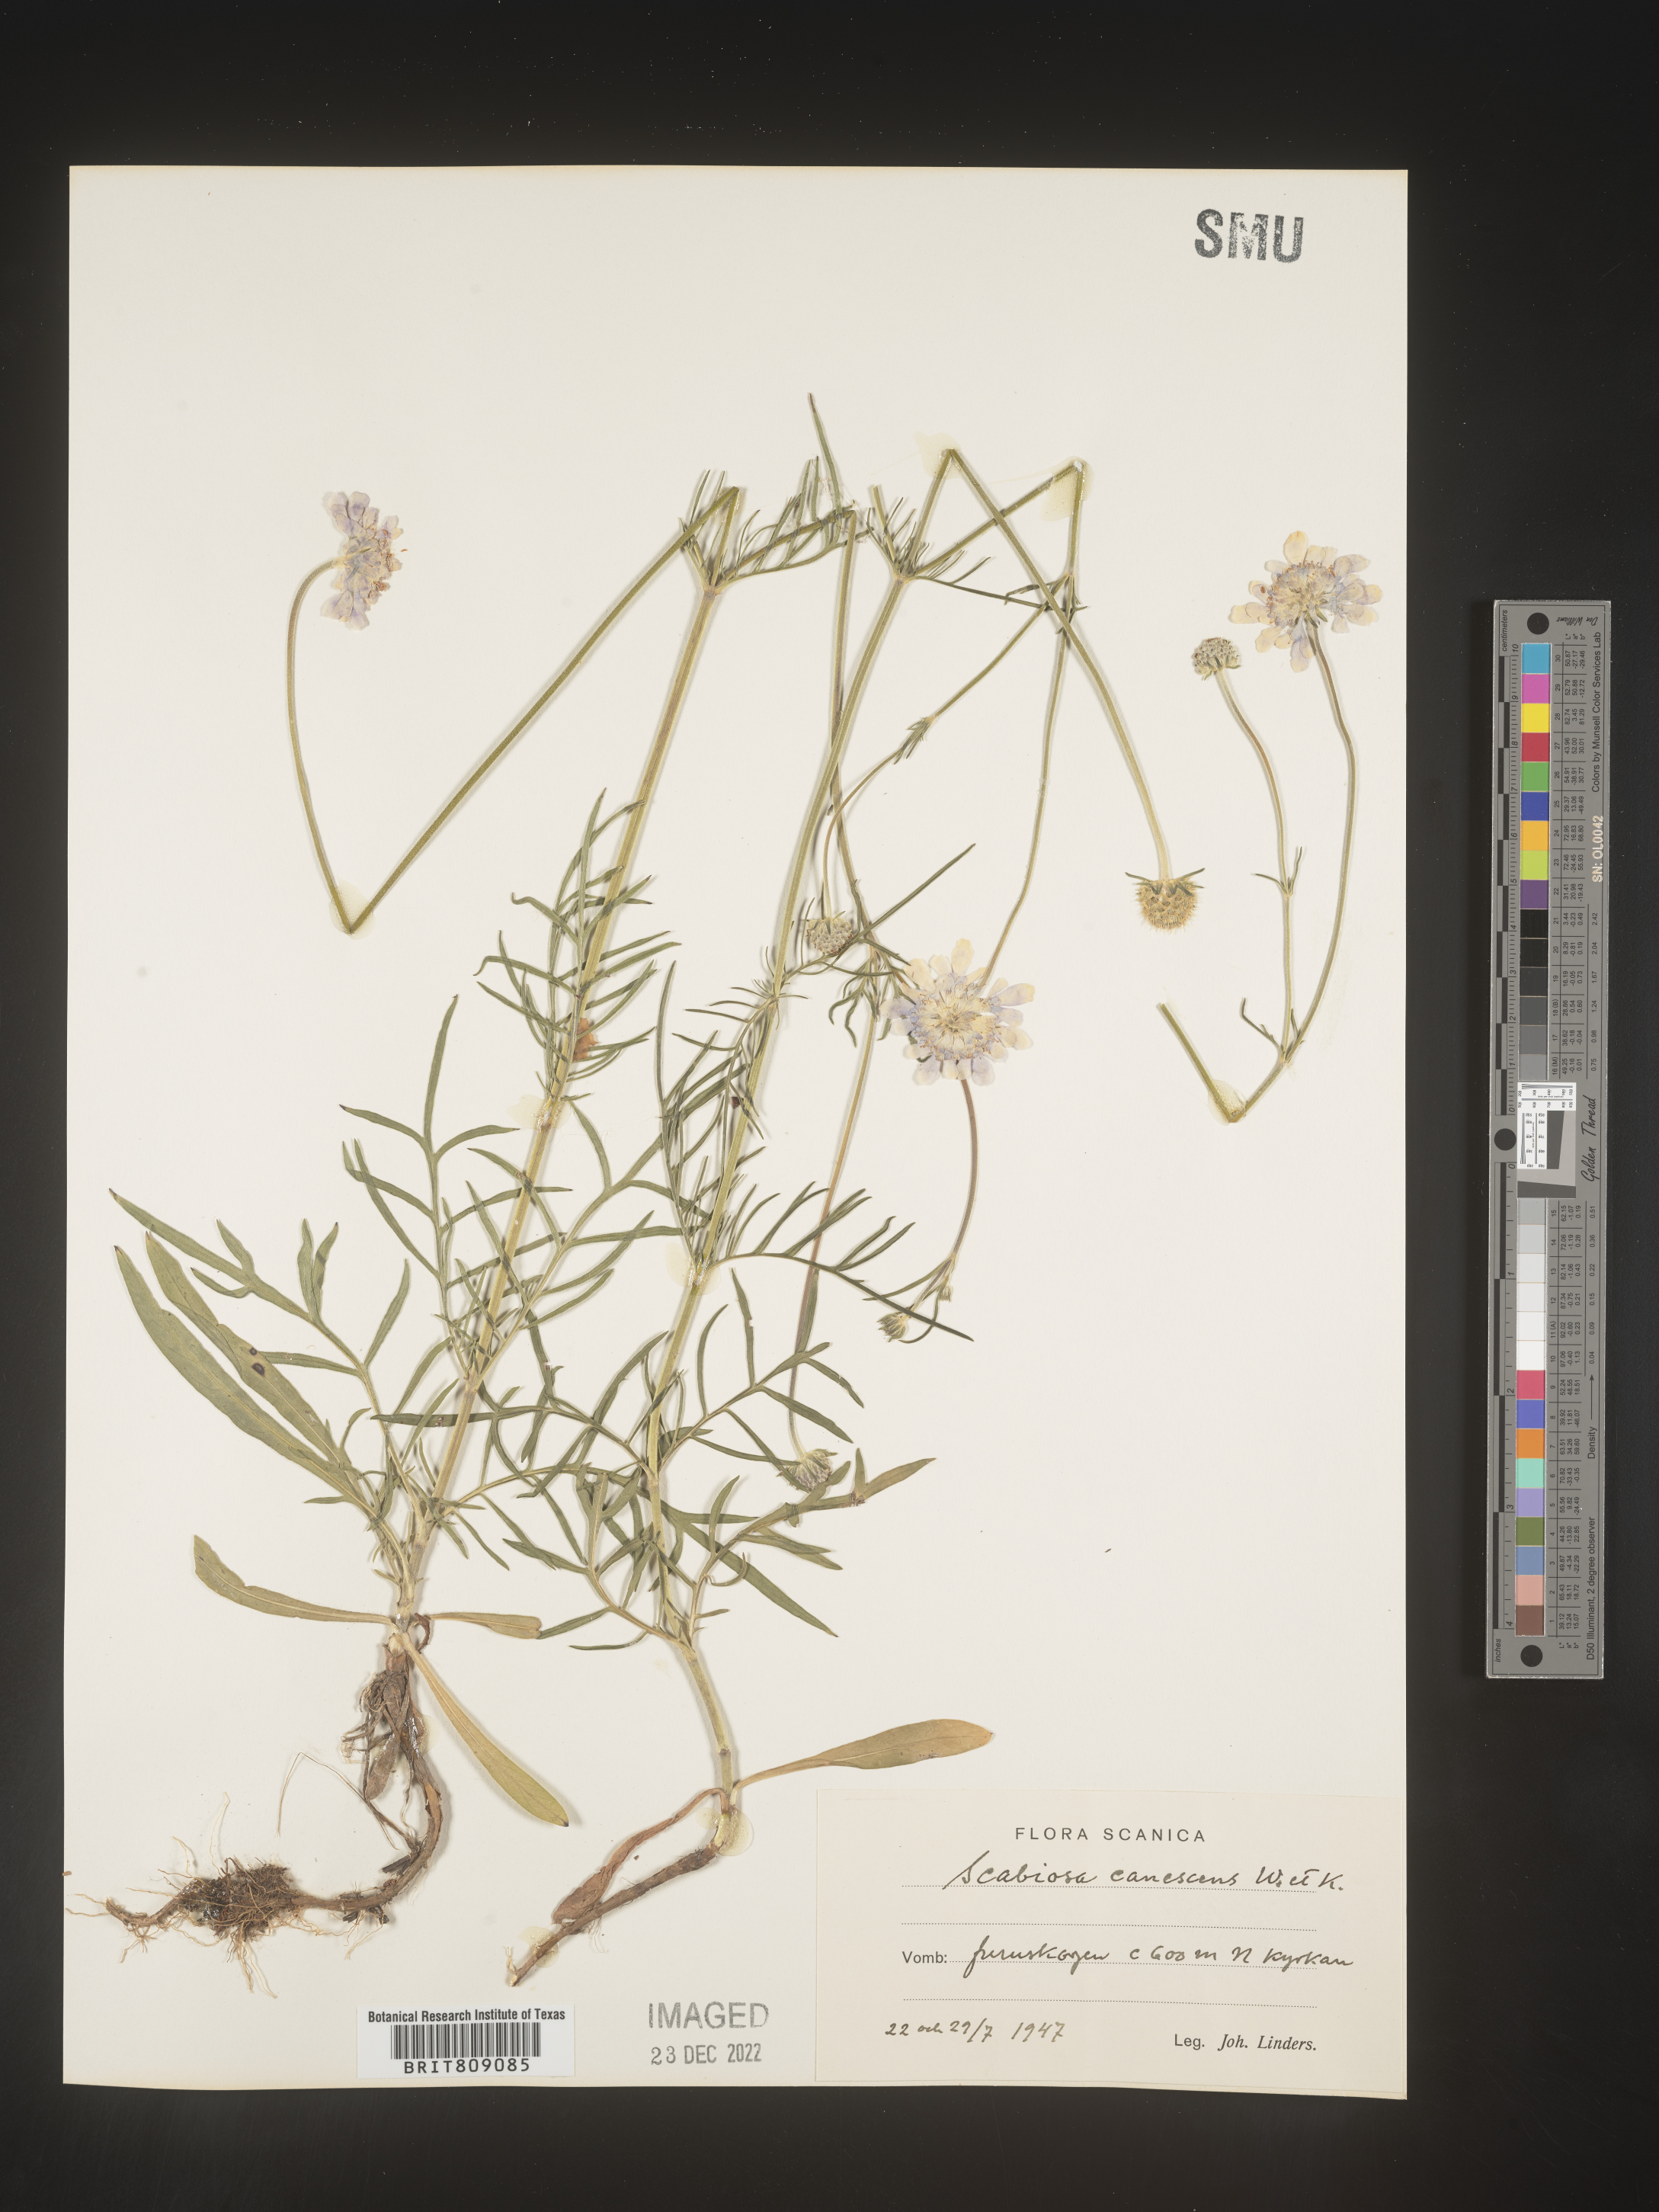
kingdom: Plantae
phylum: Tracheophyta
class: Magnoliopsida
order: Dipsacales
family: Caprifoliaceae
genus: Scabiosa
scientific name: Scabiosa
